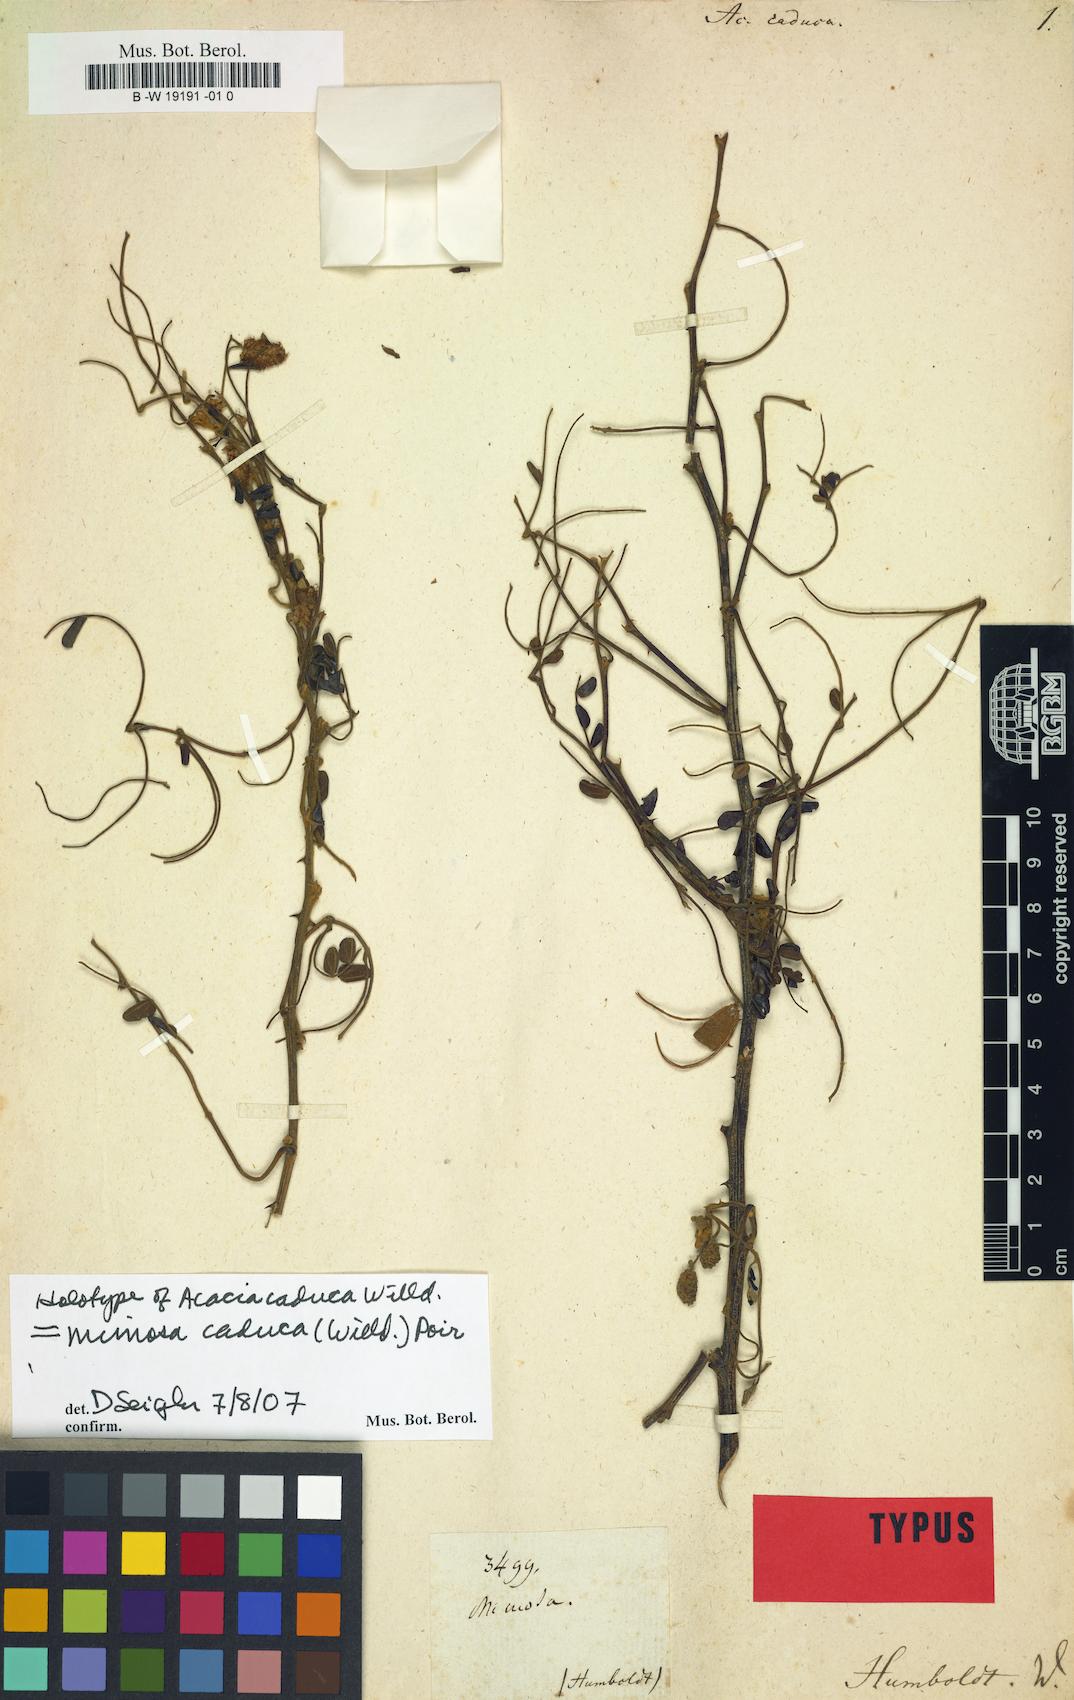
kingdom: Plantae
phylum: Tracheophyta
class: Magnoliopsida
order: Fabales
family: Fabaceae
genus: Mimosa
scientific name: Mimosa caduca
